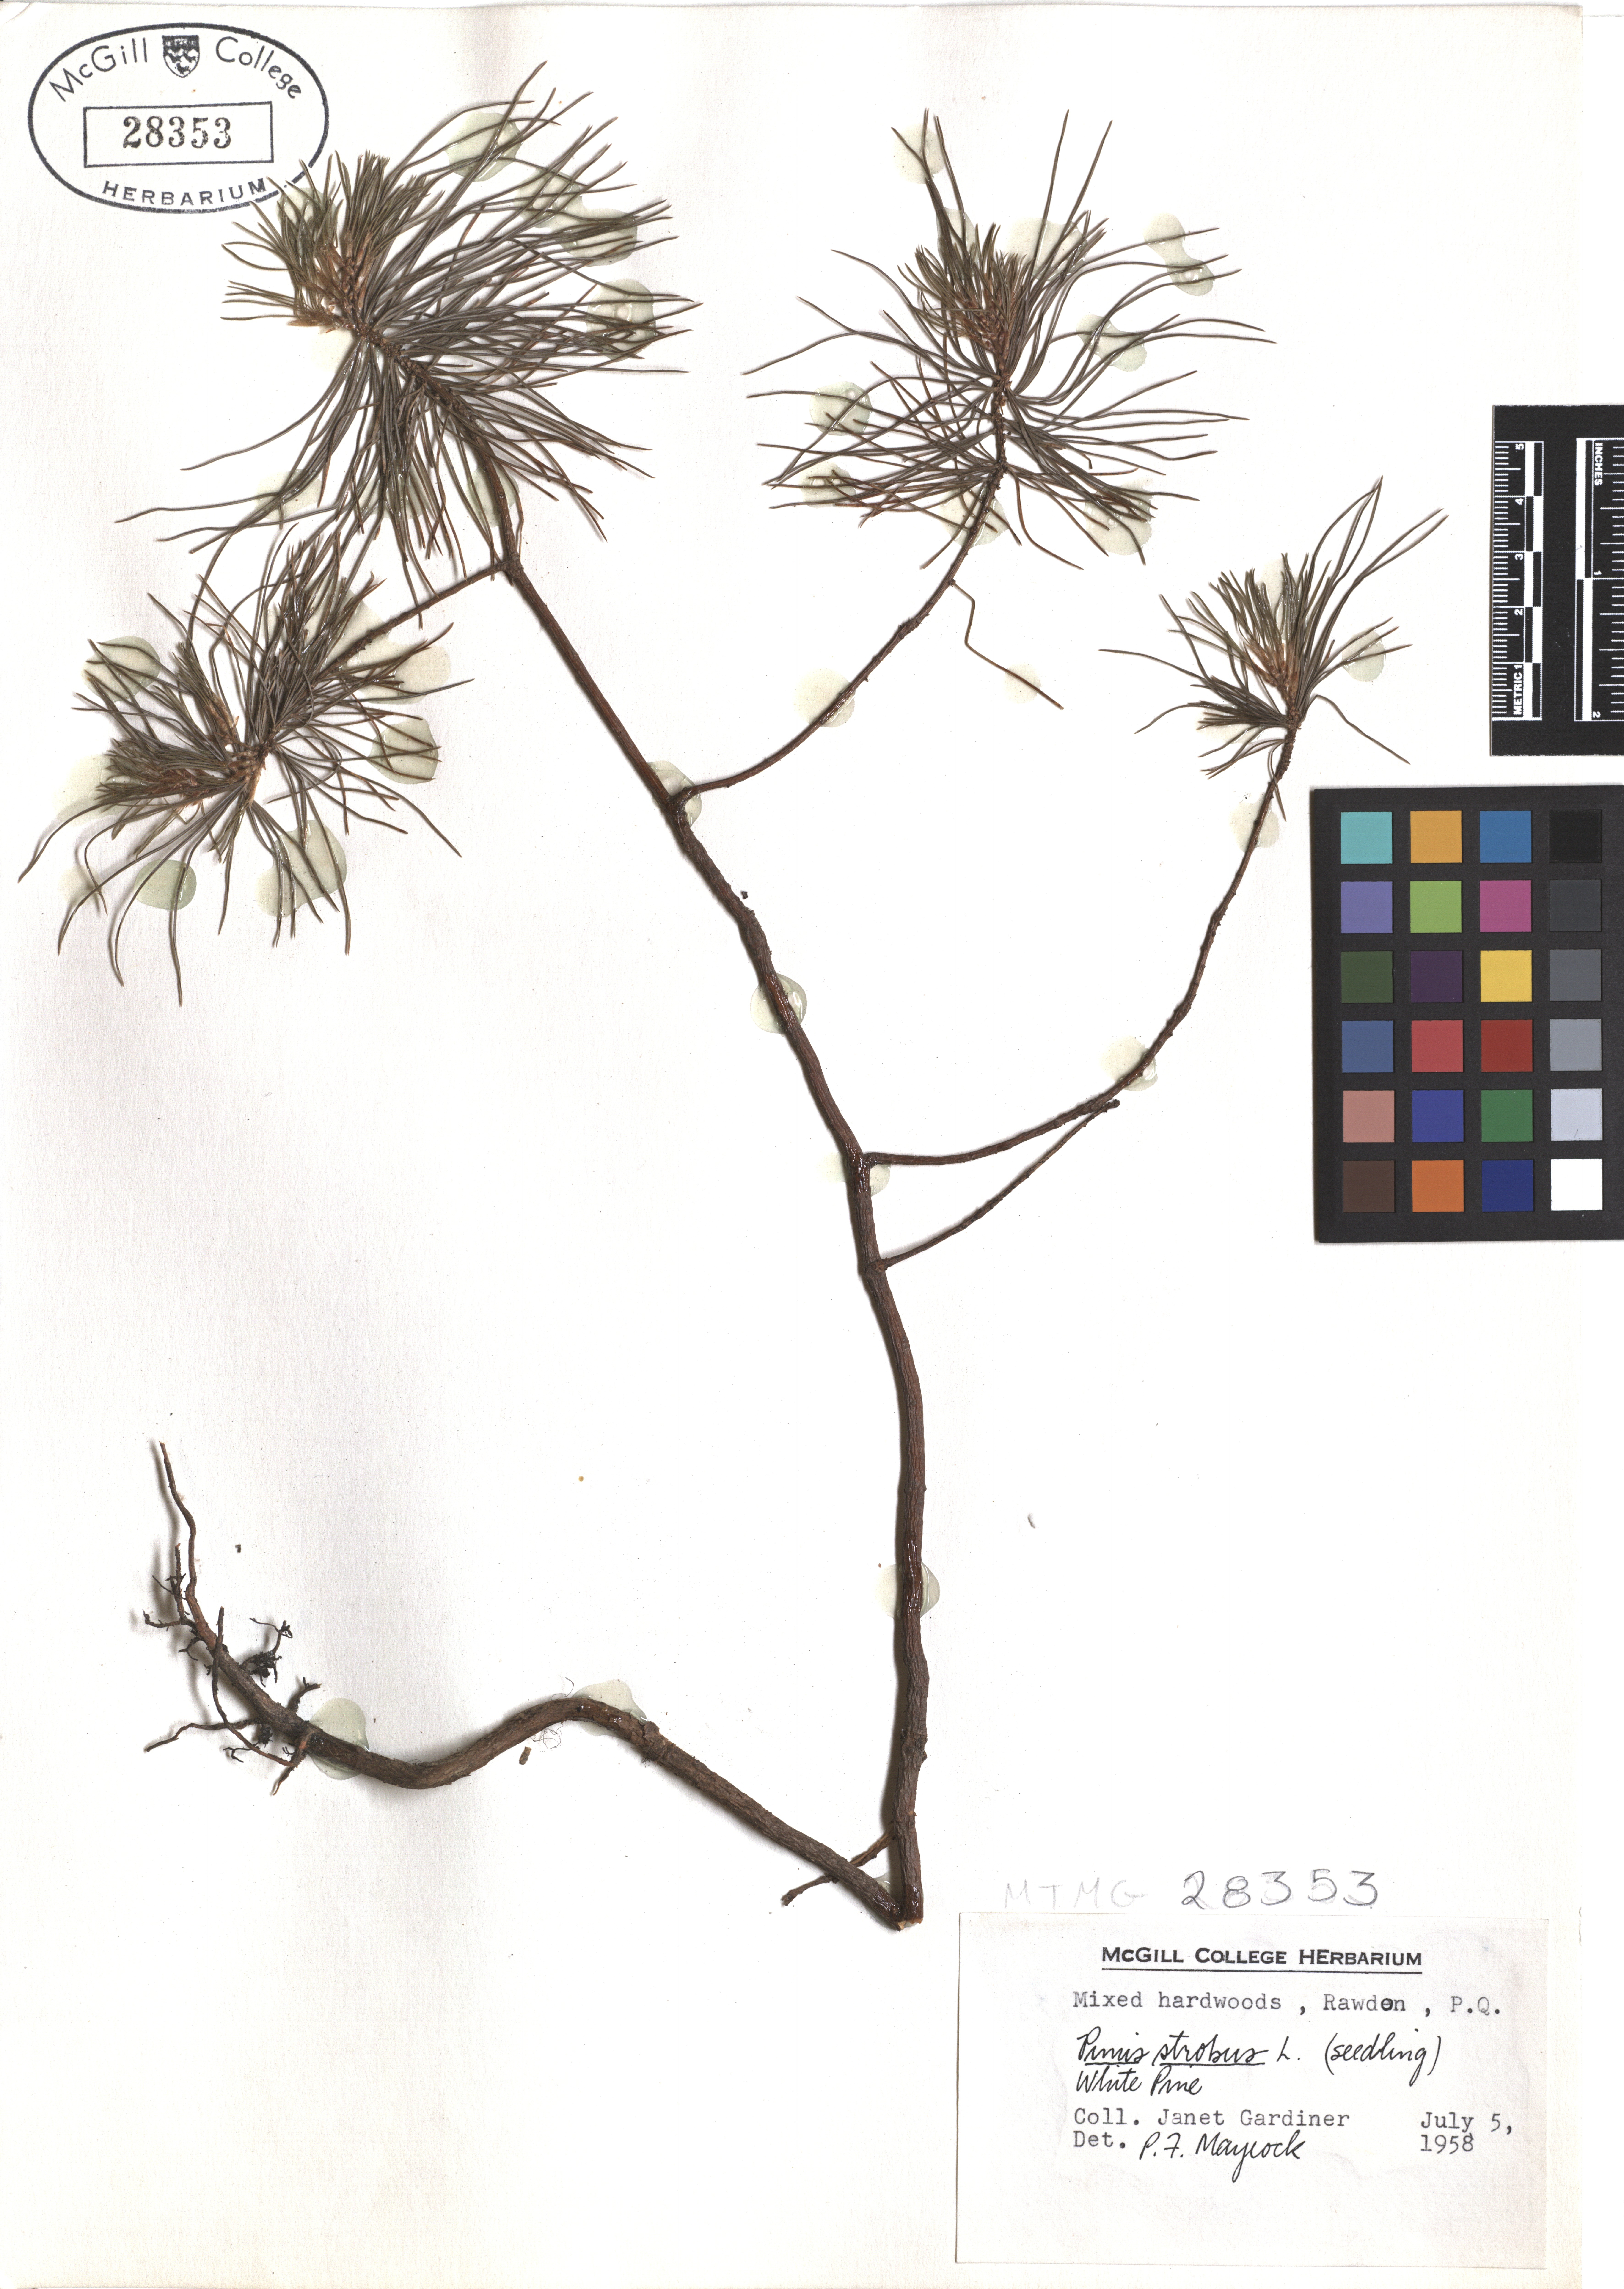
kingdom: Plantae
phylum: Tracheophyta
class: Pinopsida
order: Pinales
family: Pinaceae
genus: Pinus
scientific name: Pinus strobus
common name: Weymouth pine
